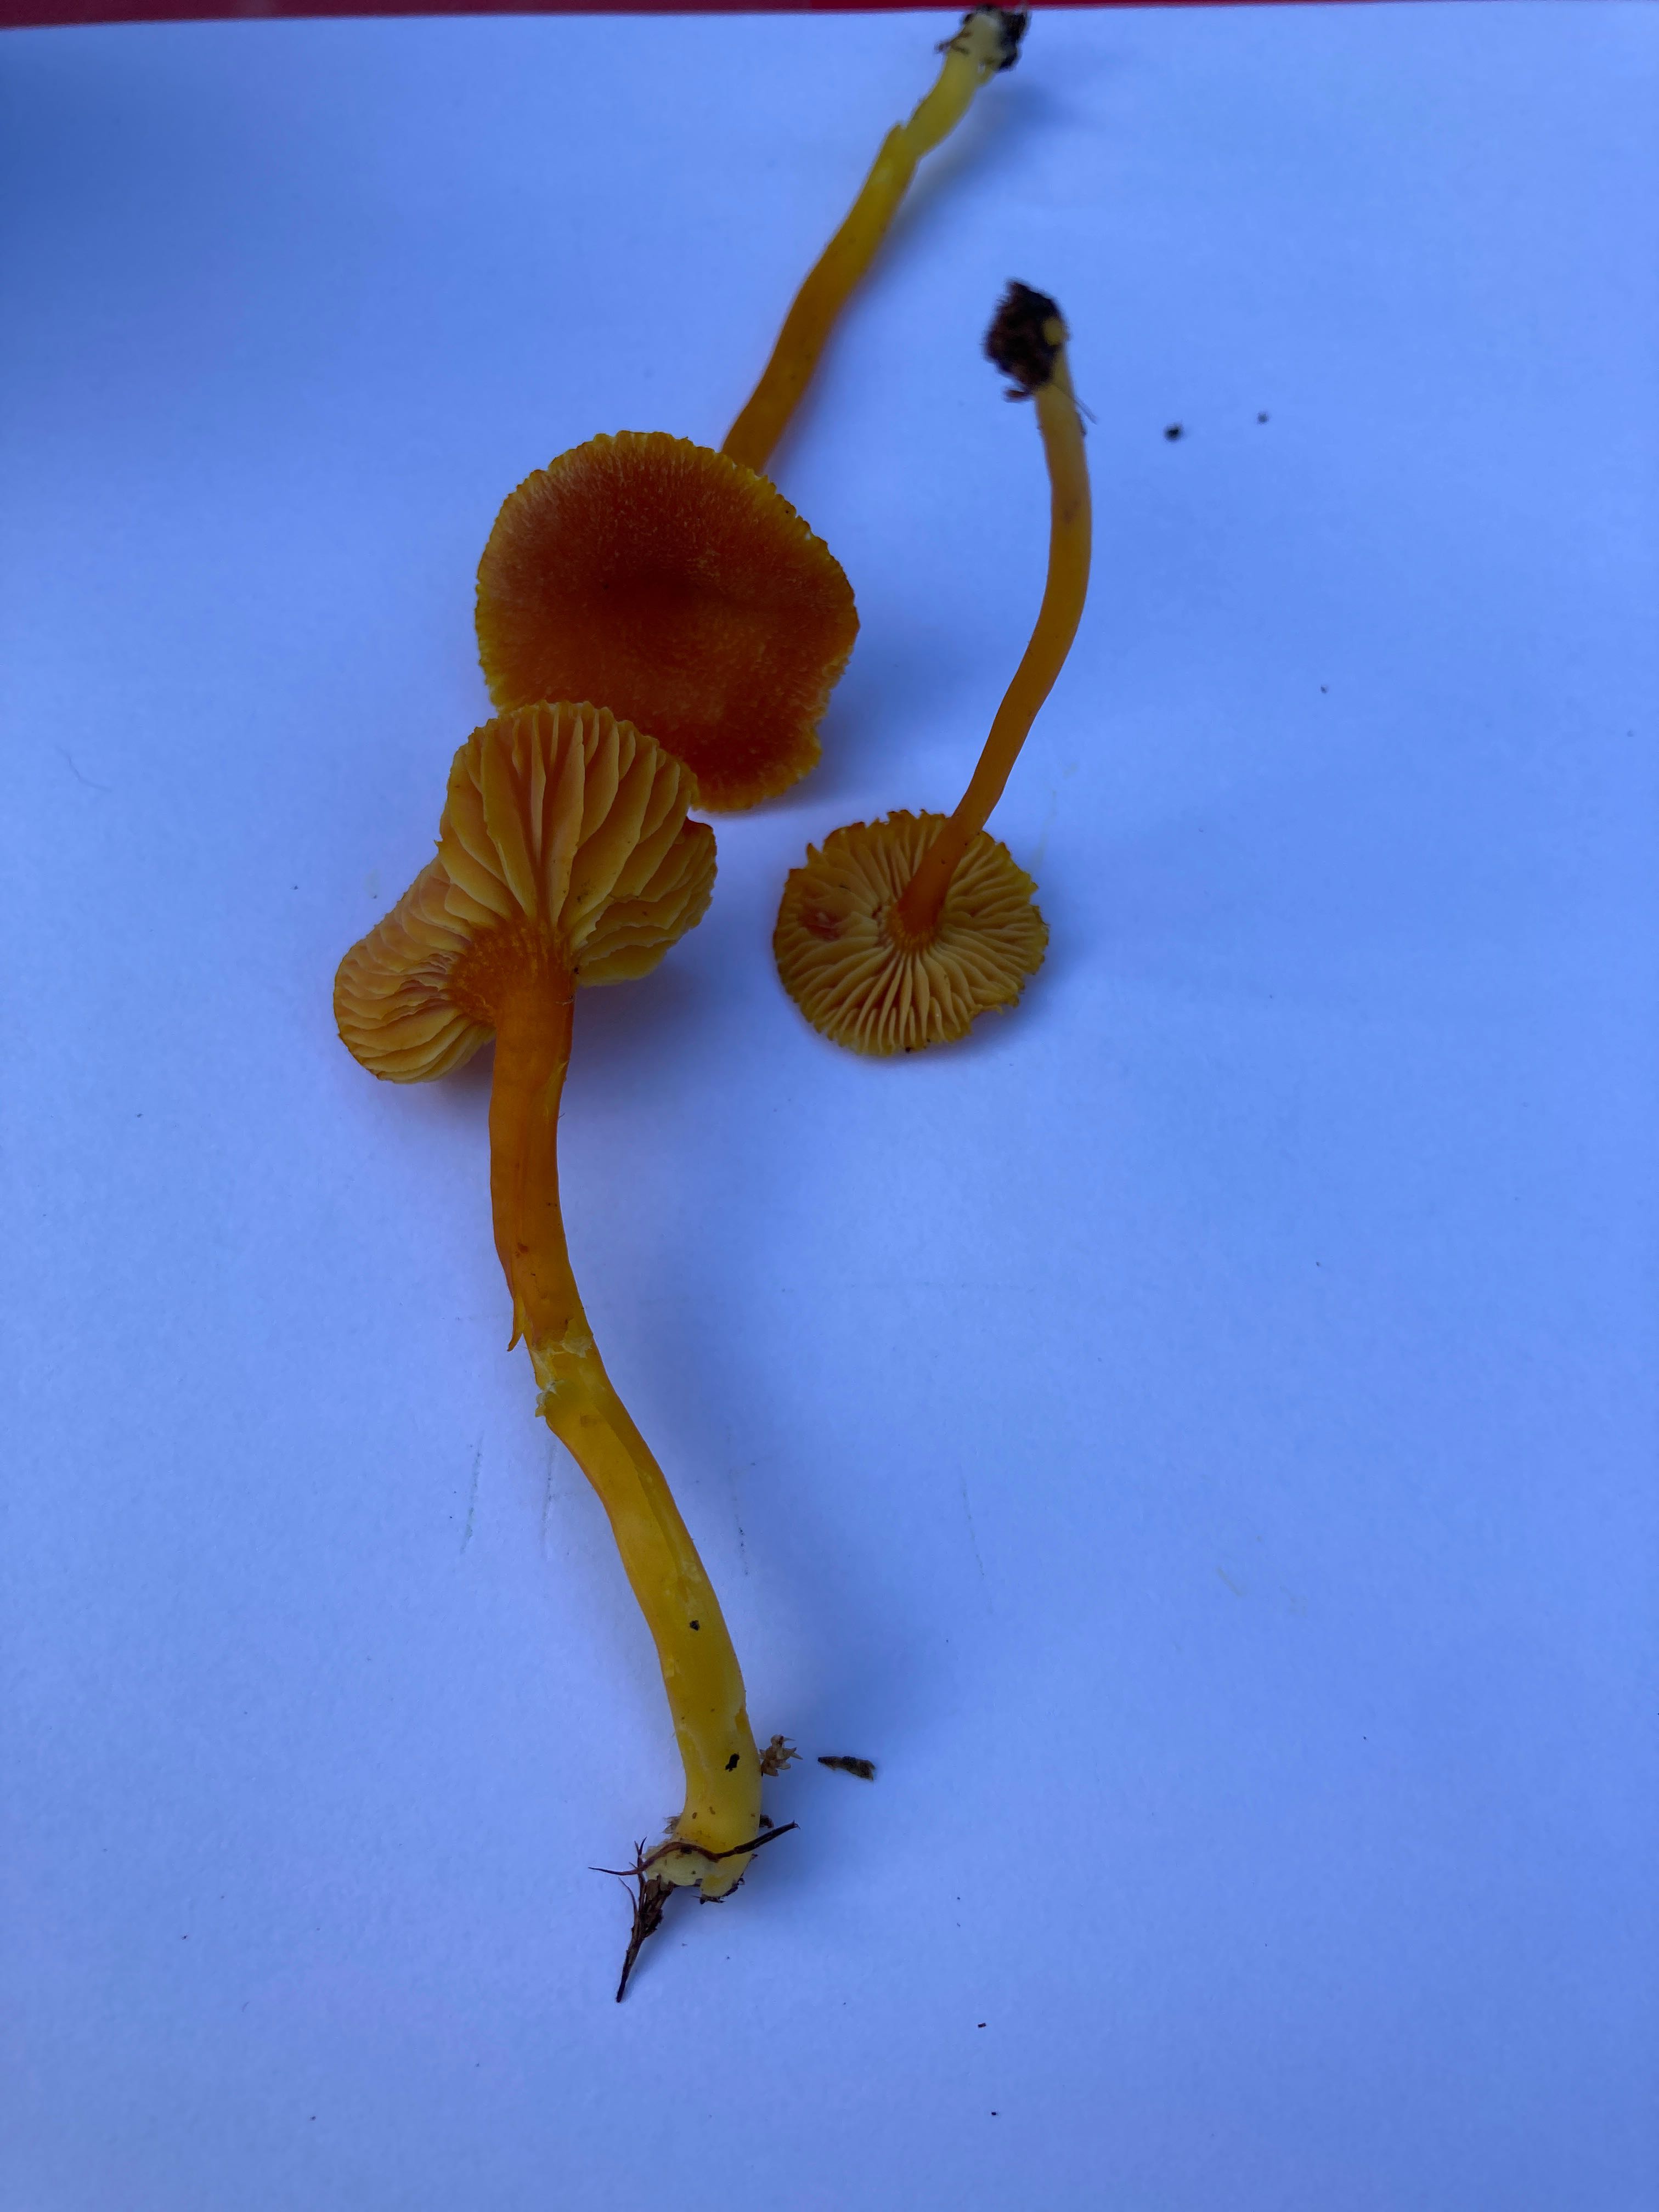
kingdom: Fungi
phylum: Basidiomycota
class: Agaricomycetes
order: Agaricales
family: Hygrophoraceae
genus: Hygrocybe
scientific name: Hygrocybe miniata
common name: mønje-vokshat
